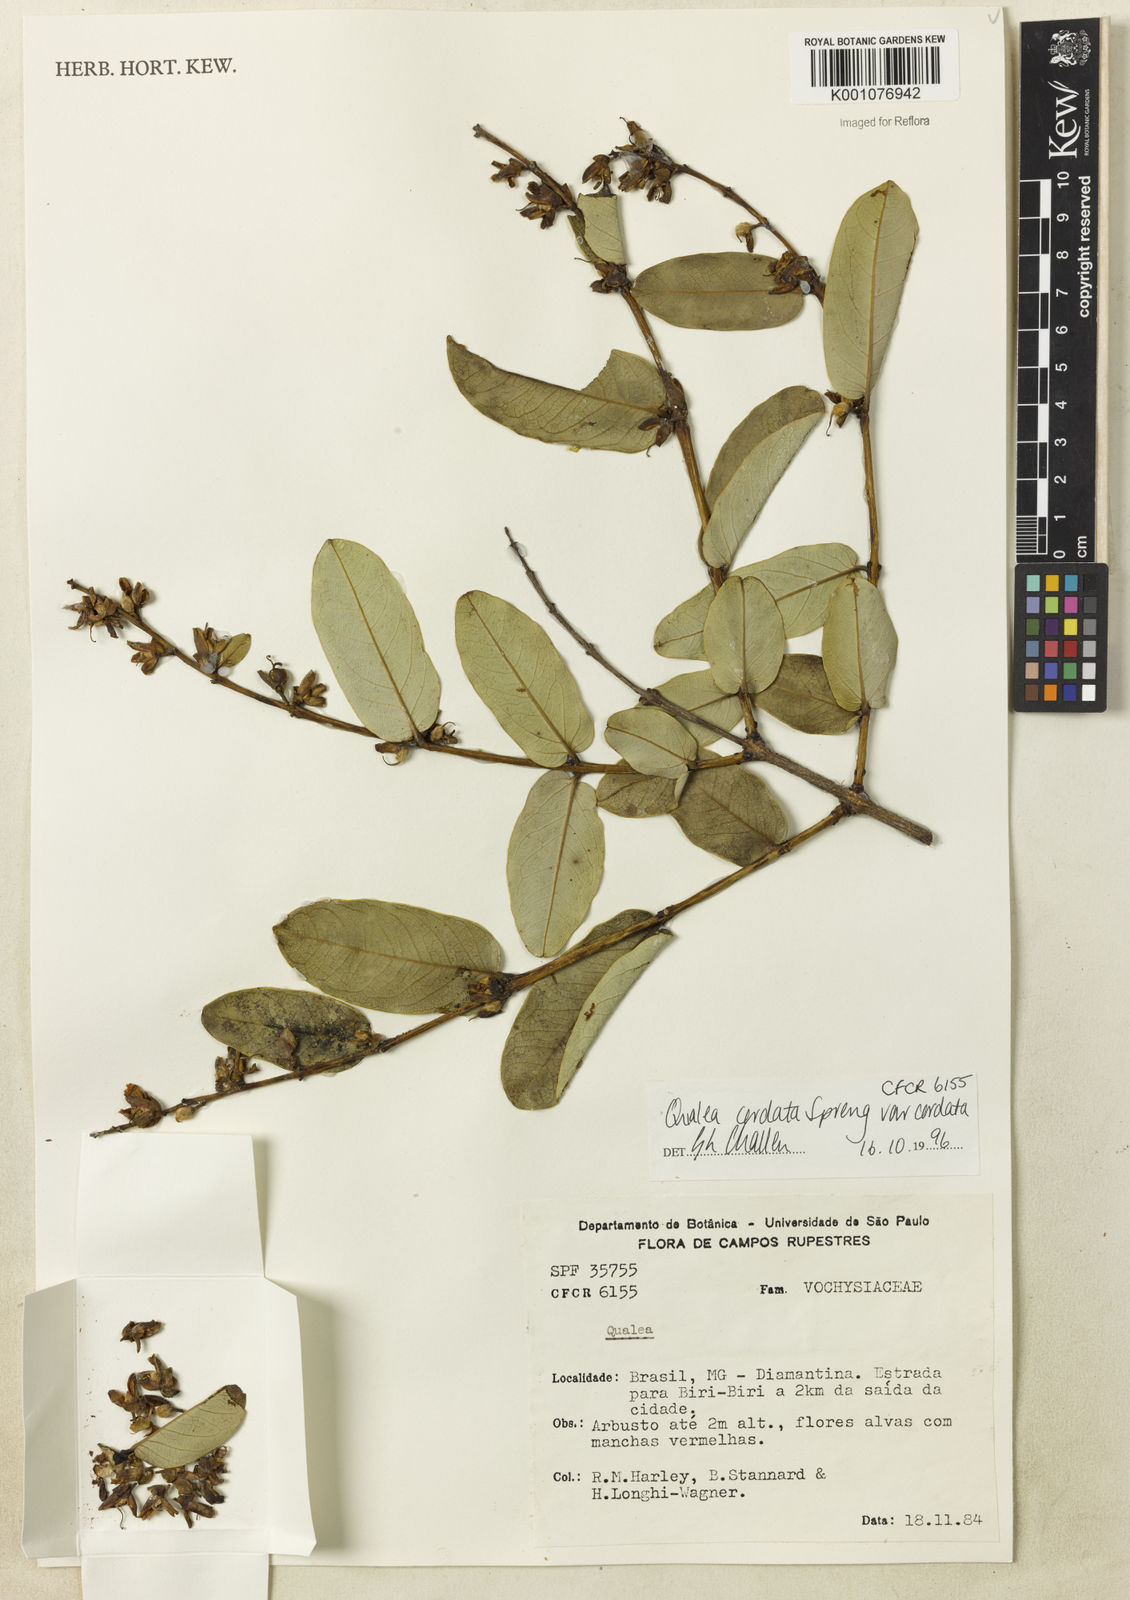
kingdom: Plantae
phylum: Tracheophyta
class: Magnoliopsida
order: Myrtales
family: Vochysiaceae
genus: Qualea
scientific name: Qualea cordata
